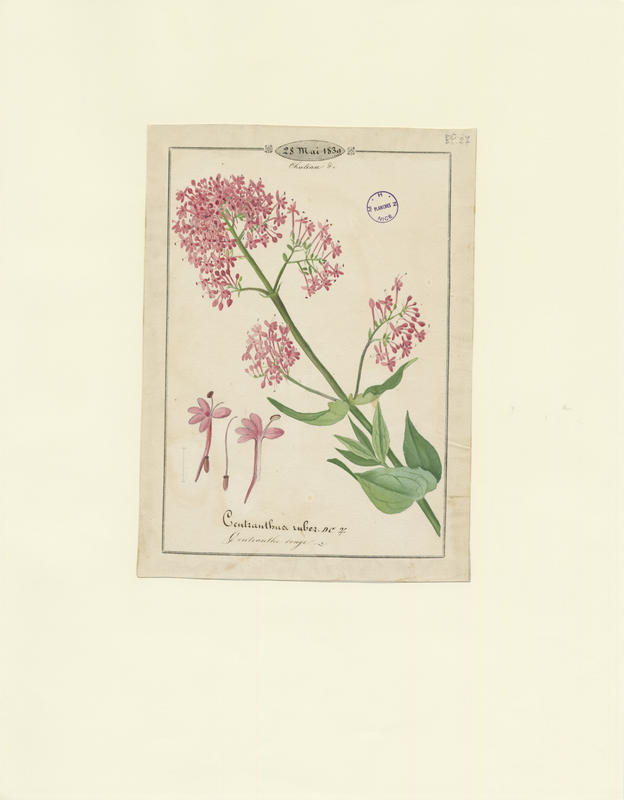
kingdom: Plantae
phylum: Tracheophyta
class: Magnoliopsida
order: Dipsacales
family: Caprifoliaceae
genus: Centranthus
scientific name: Centranthus ruber
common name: Red valerian
